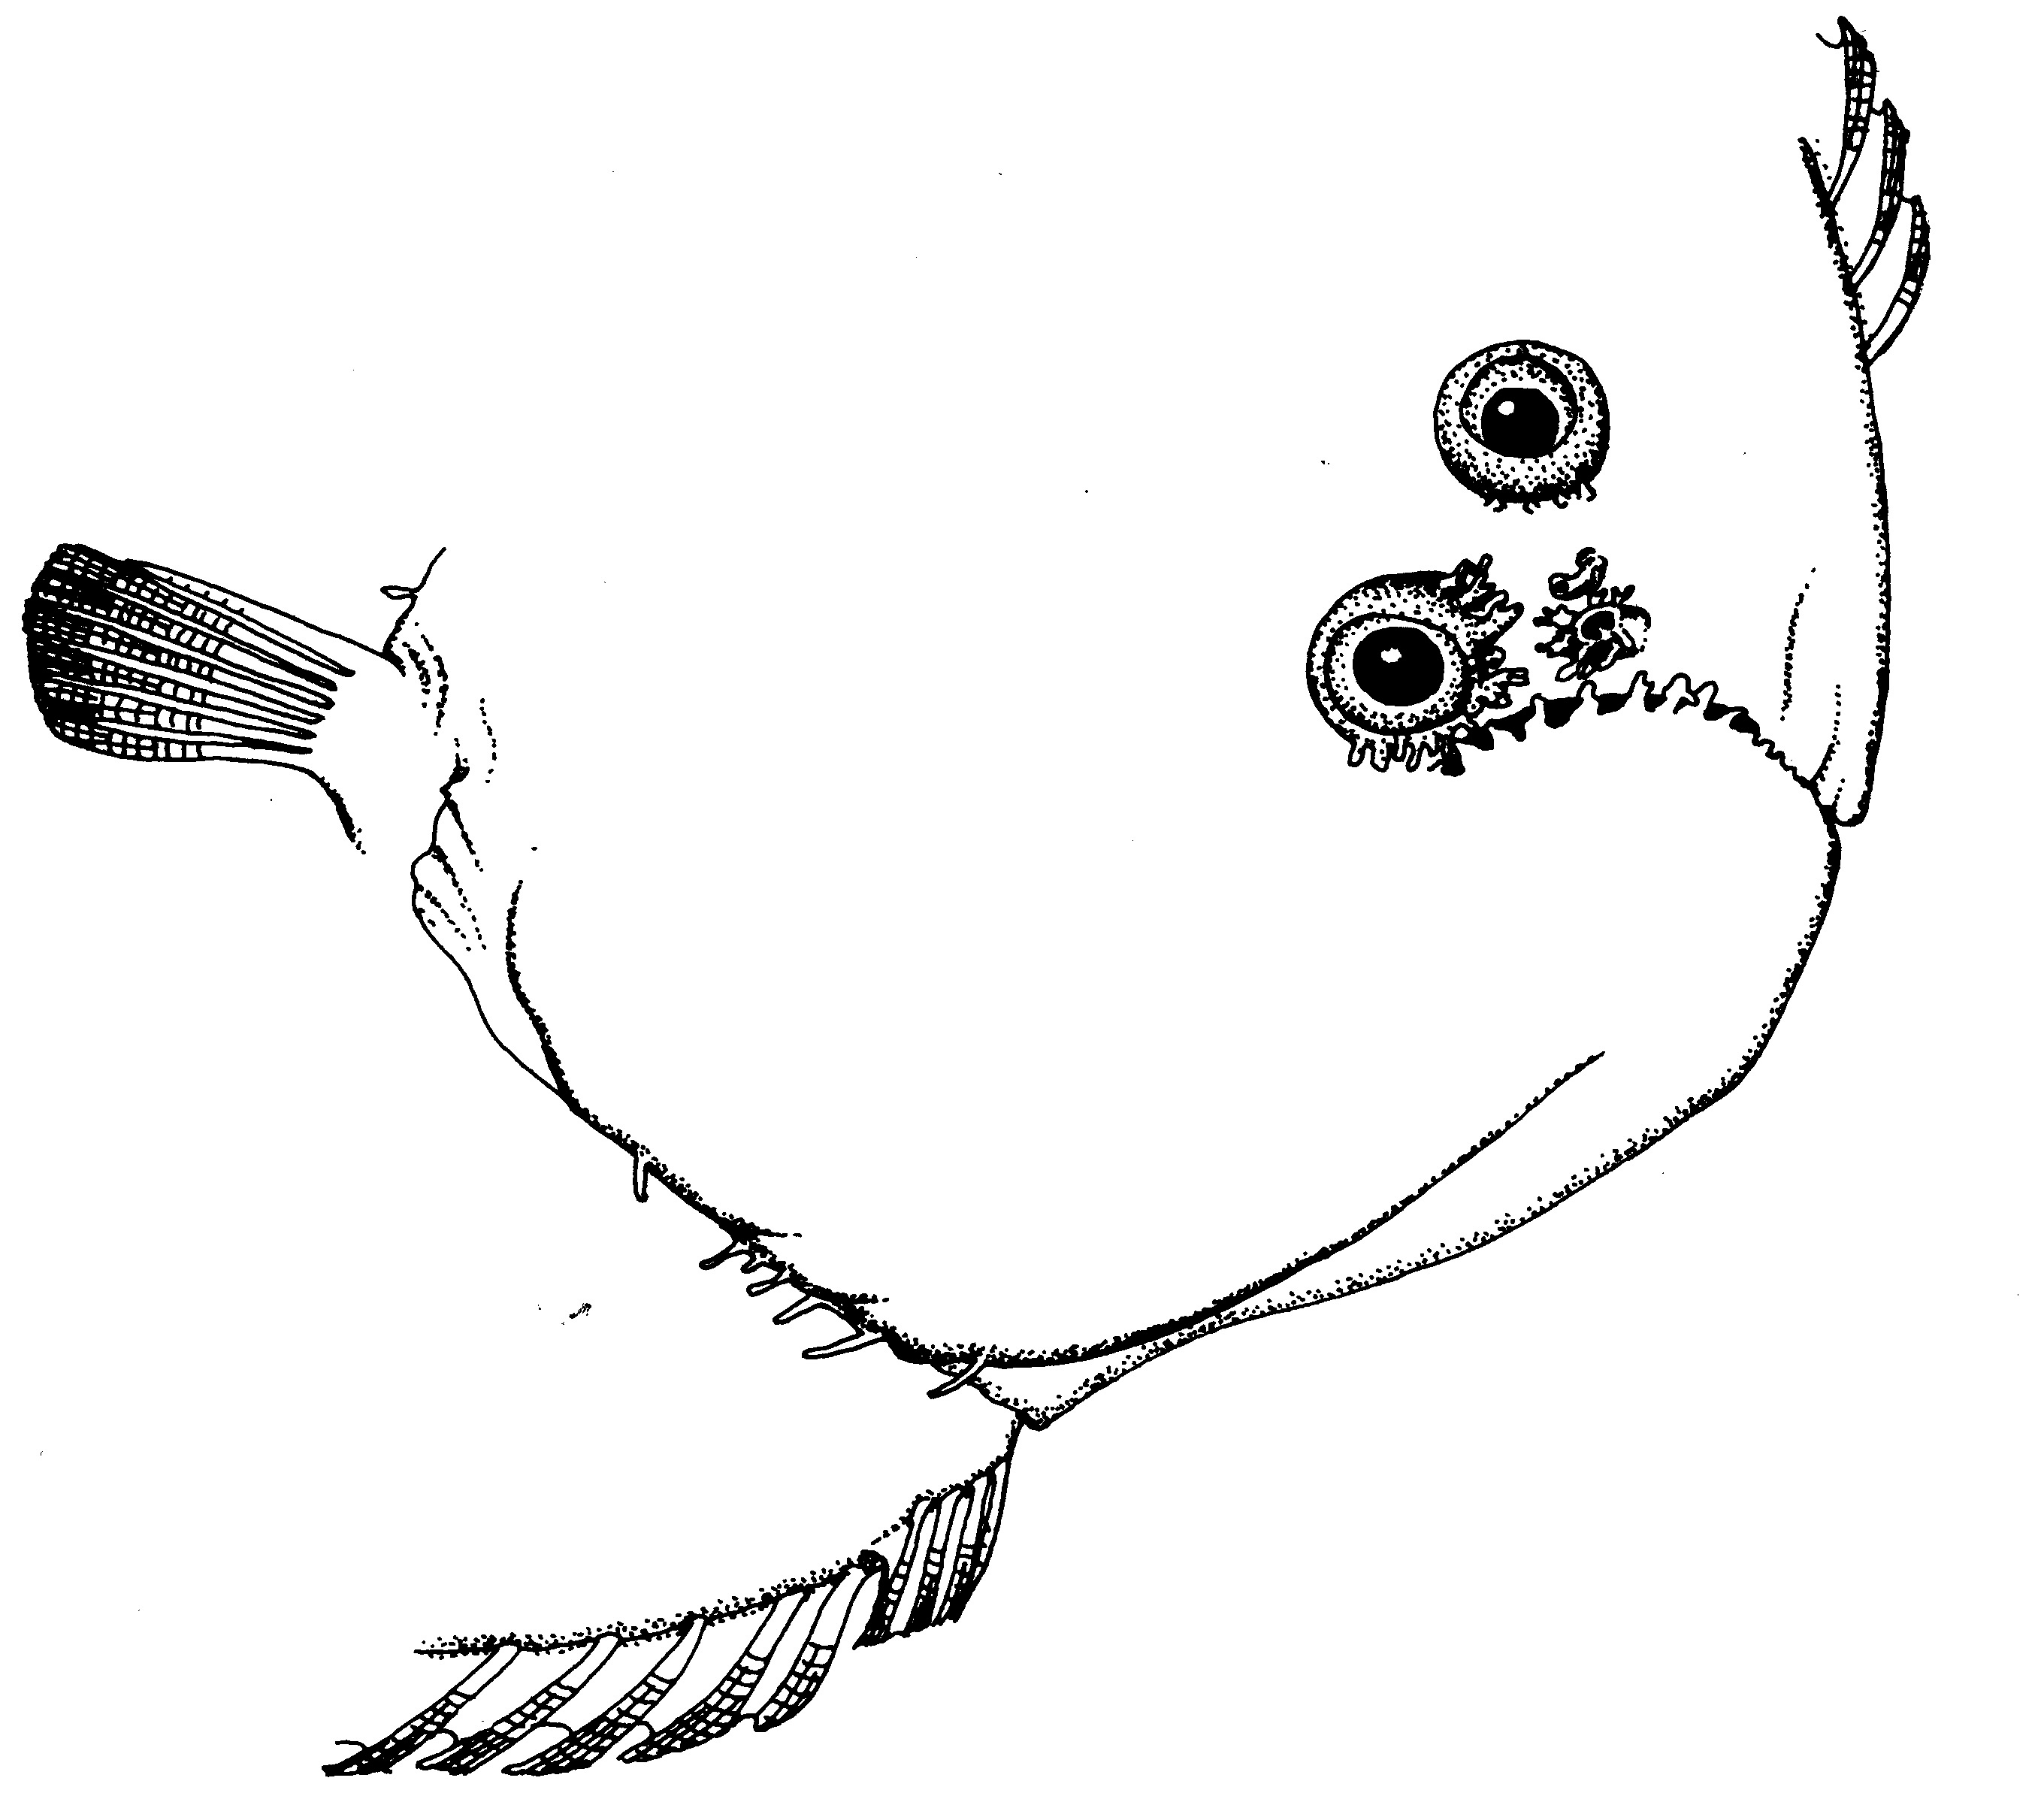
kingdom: Animalia
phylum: Chordata
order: Pleuronectiformes
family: Soleidae
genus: Synaptura
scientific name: Synaptura marginata
